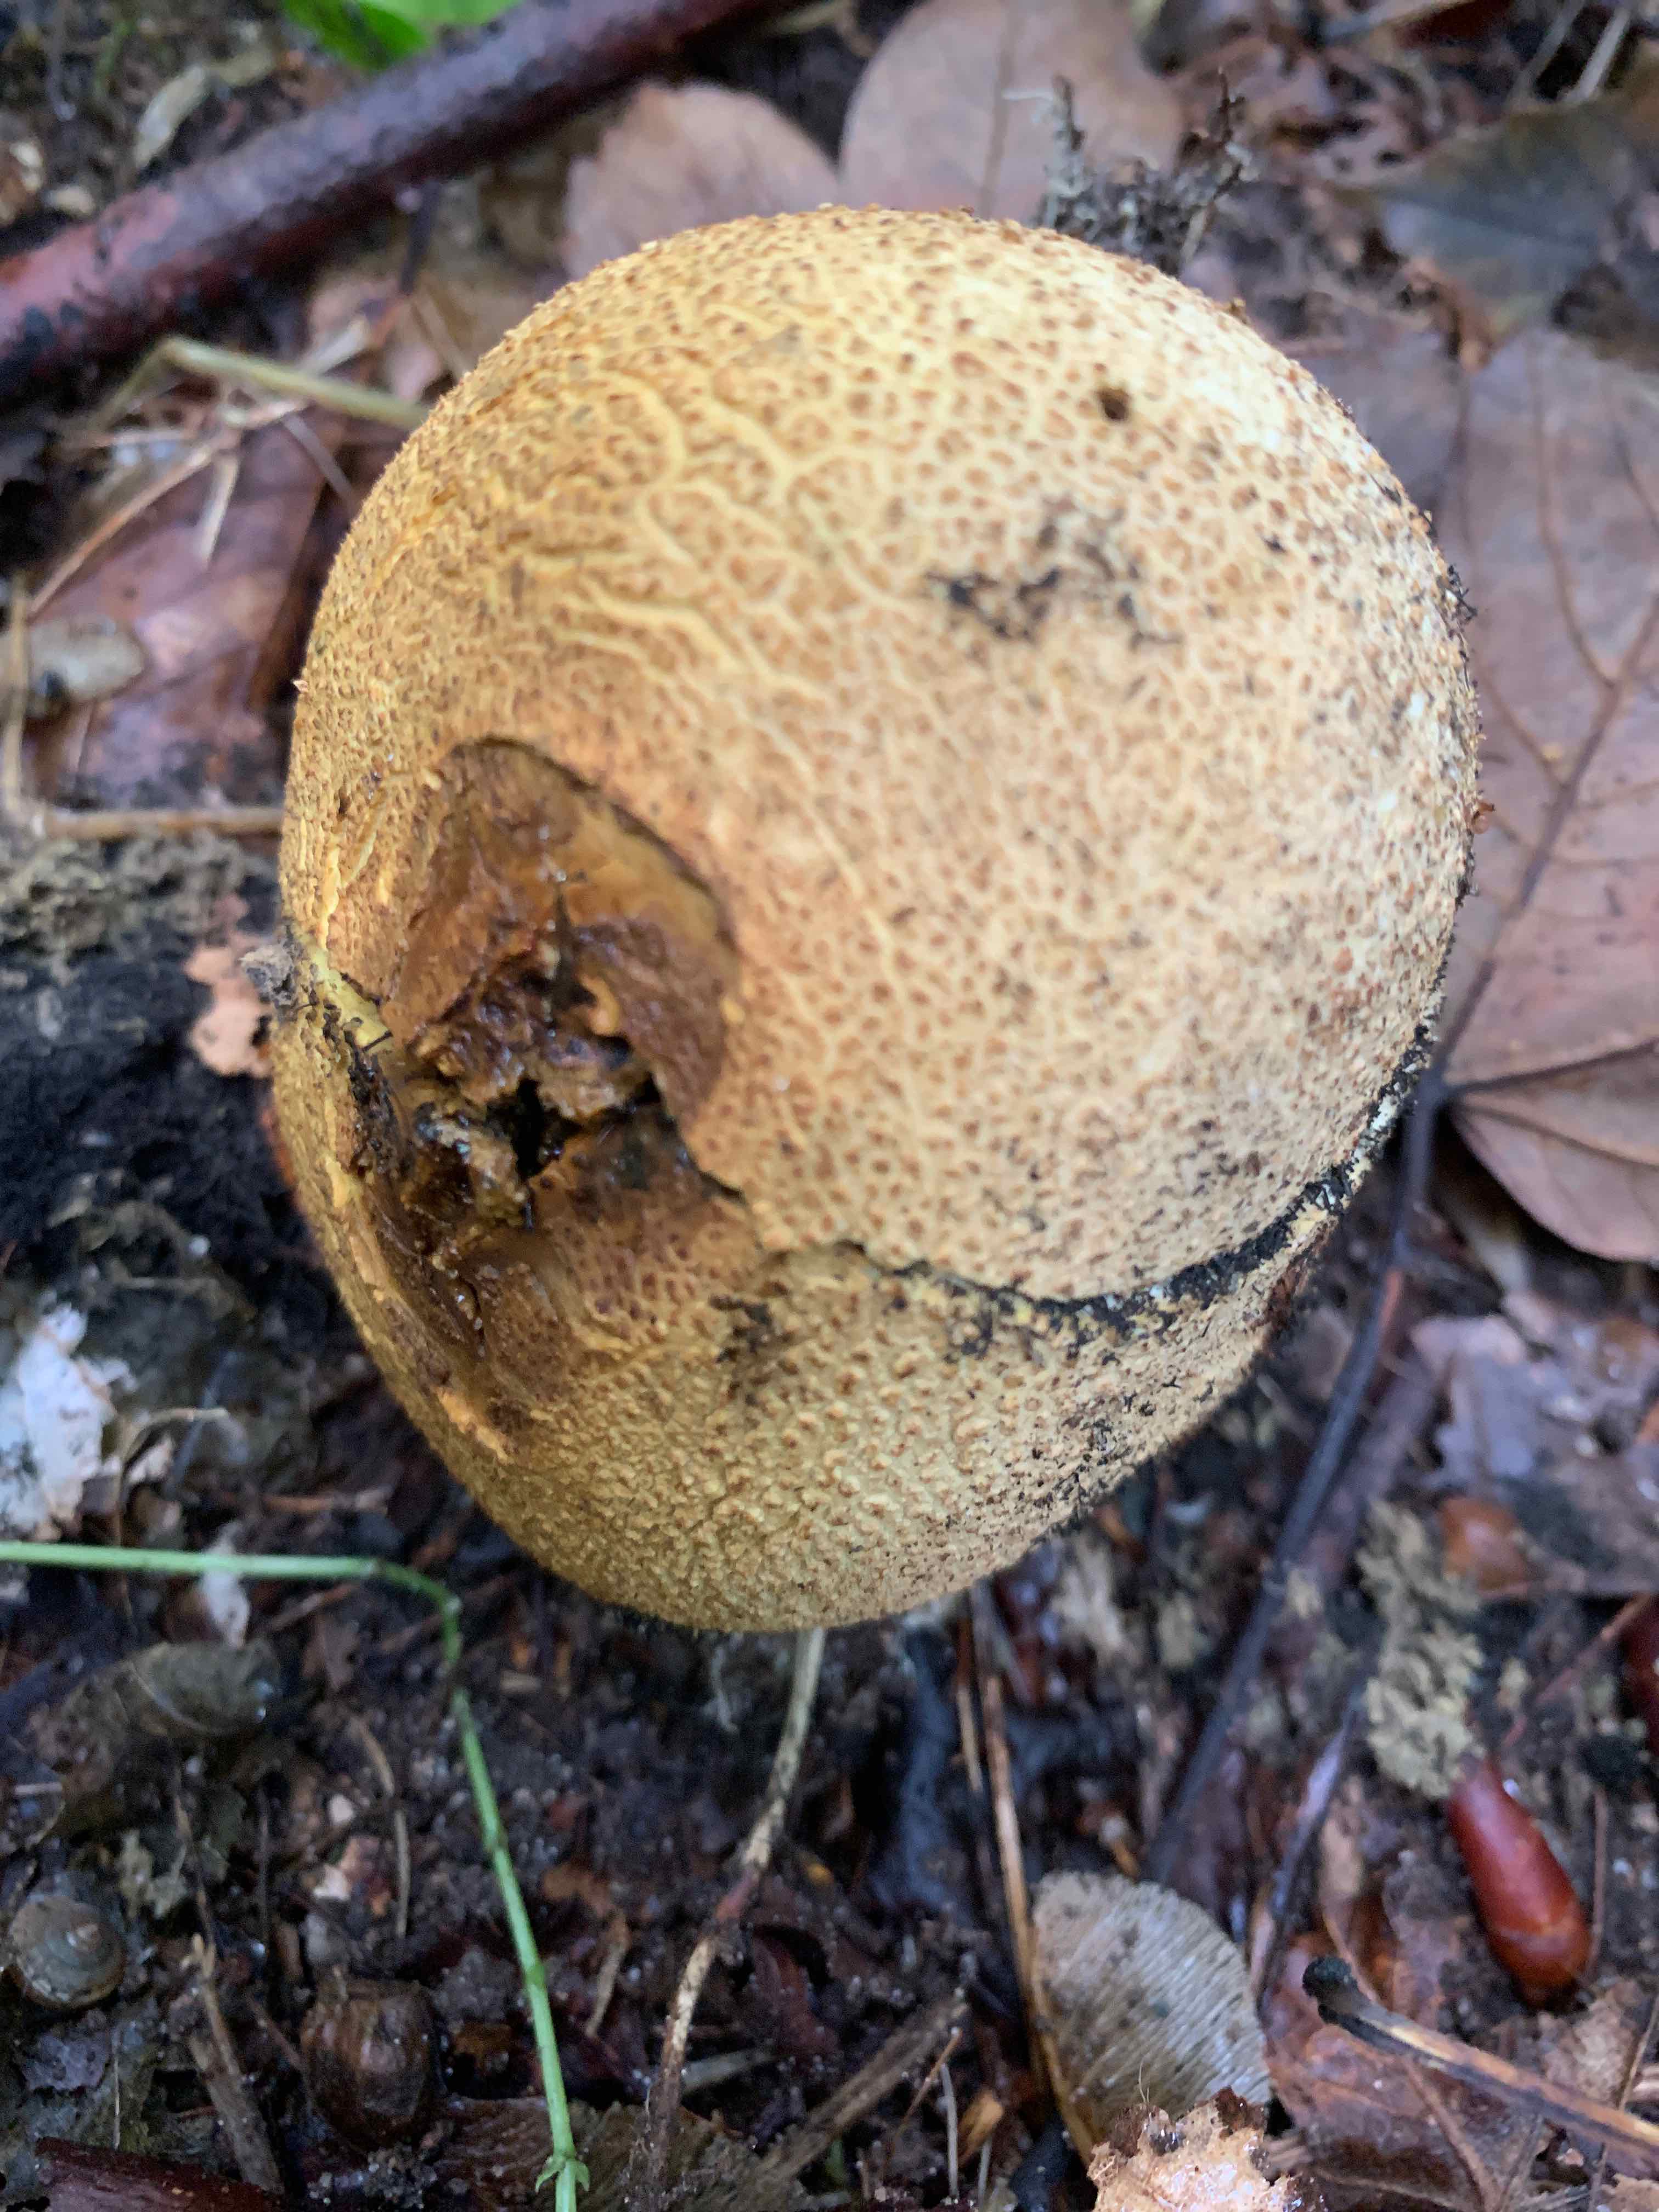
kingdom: Fungi
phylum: Basidiomycota
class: Agaricomycetes
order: Boletales
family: Sclerodermataceae
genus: Scleroderma
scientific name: Scleroderma citrinum
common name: almindelig bruskbold
